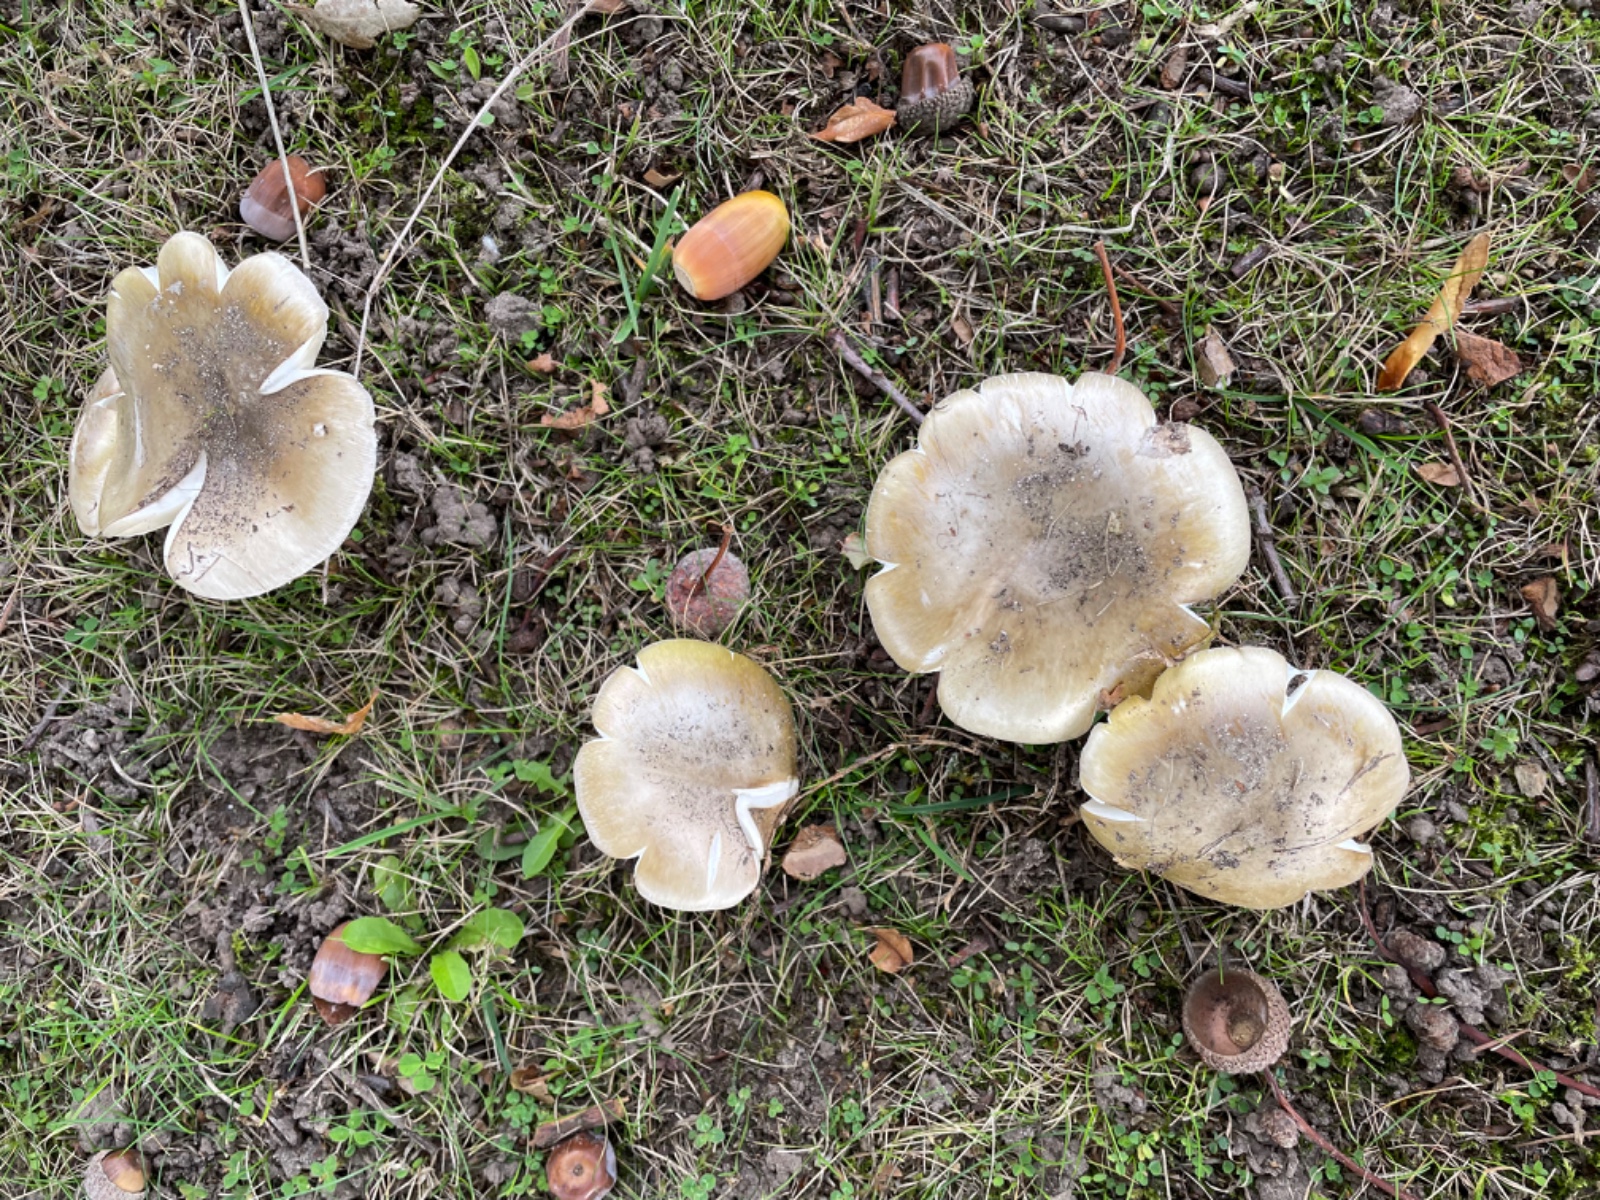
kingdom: Fungi
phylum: Basidiomycota
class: Agaricomycetes
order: Agaricales
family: Amanitaceae
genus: Amanita
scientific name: Amanita phalloides
